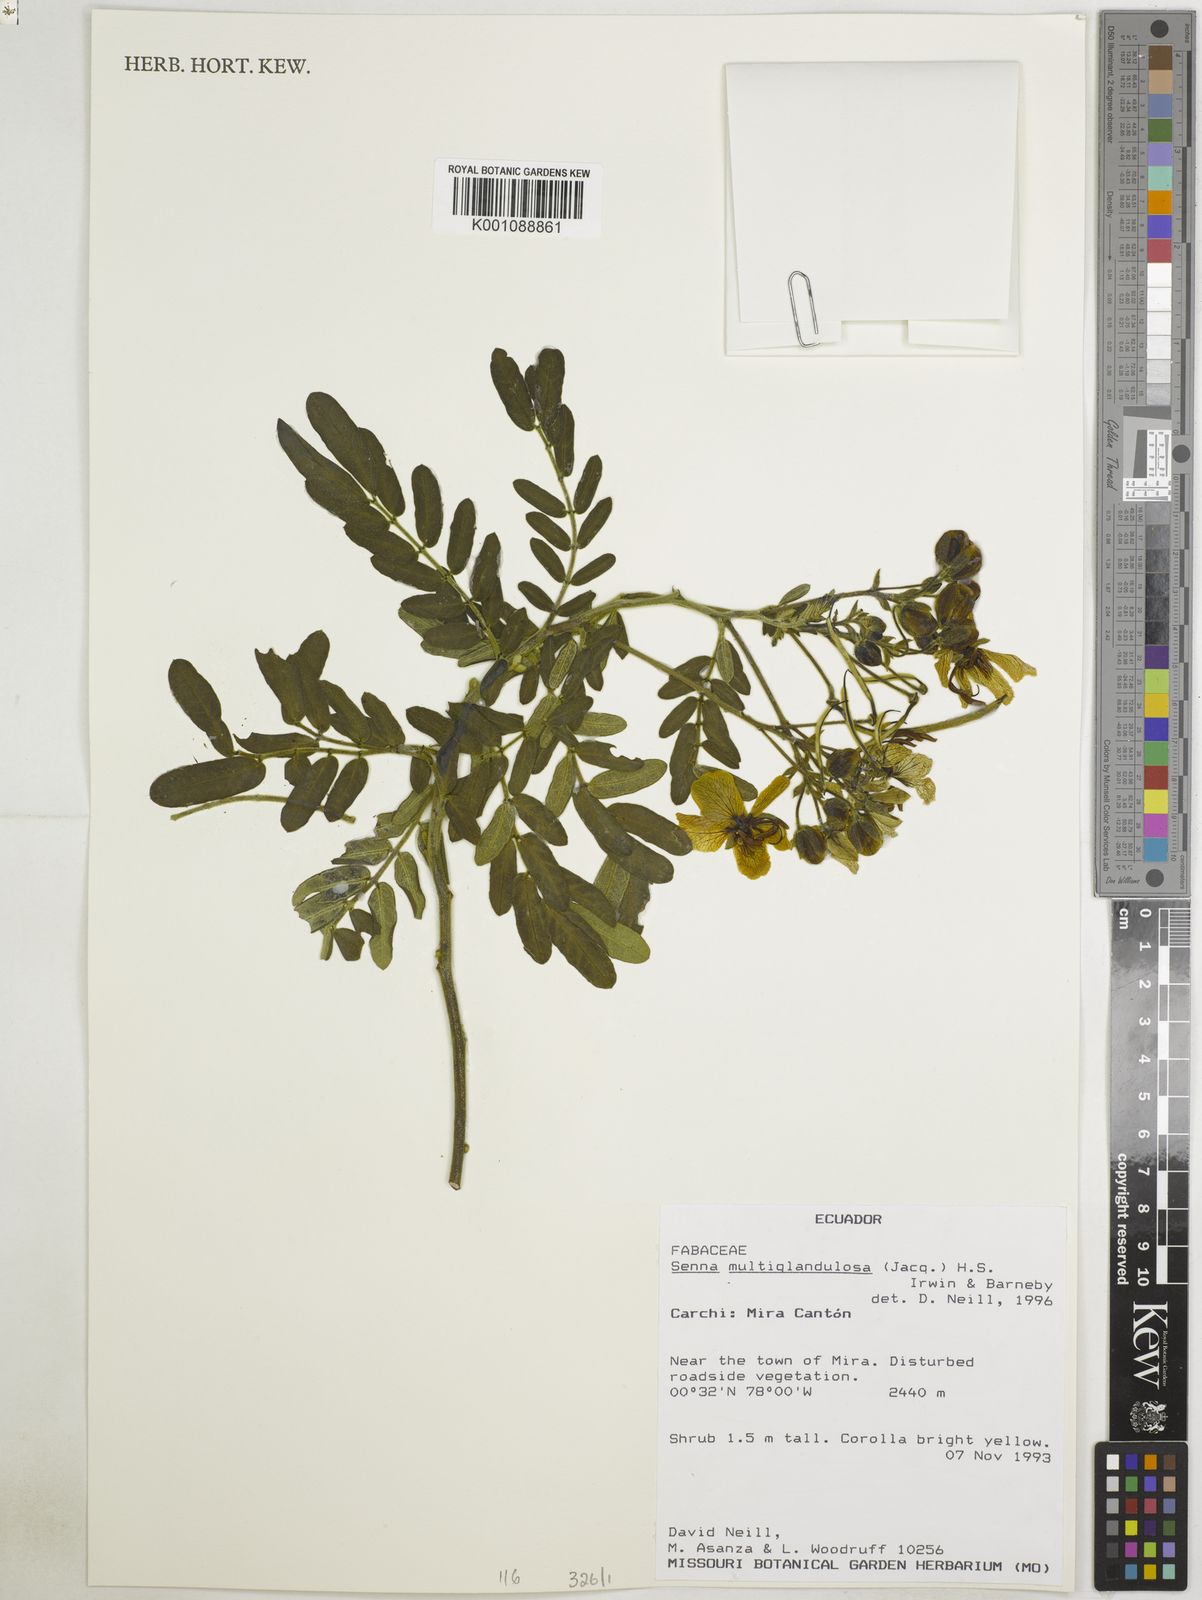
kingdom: Plantae
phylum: Tracheophyta
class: Magnoliopsida
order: Fabales
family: Fabaceae
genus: Senna
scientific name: Senna multiglandulosa
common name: Glandular senna
